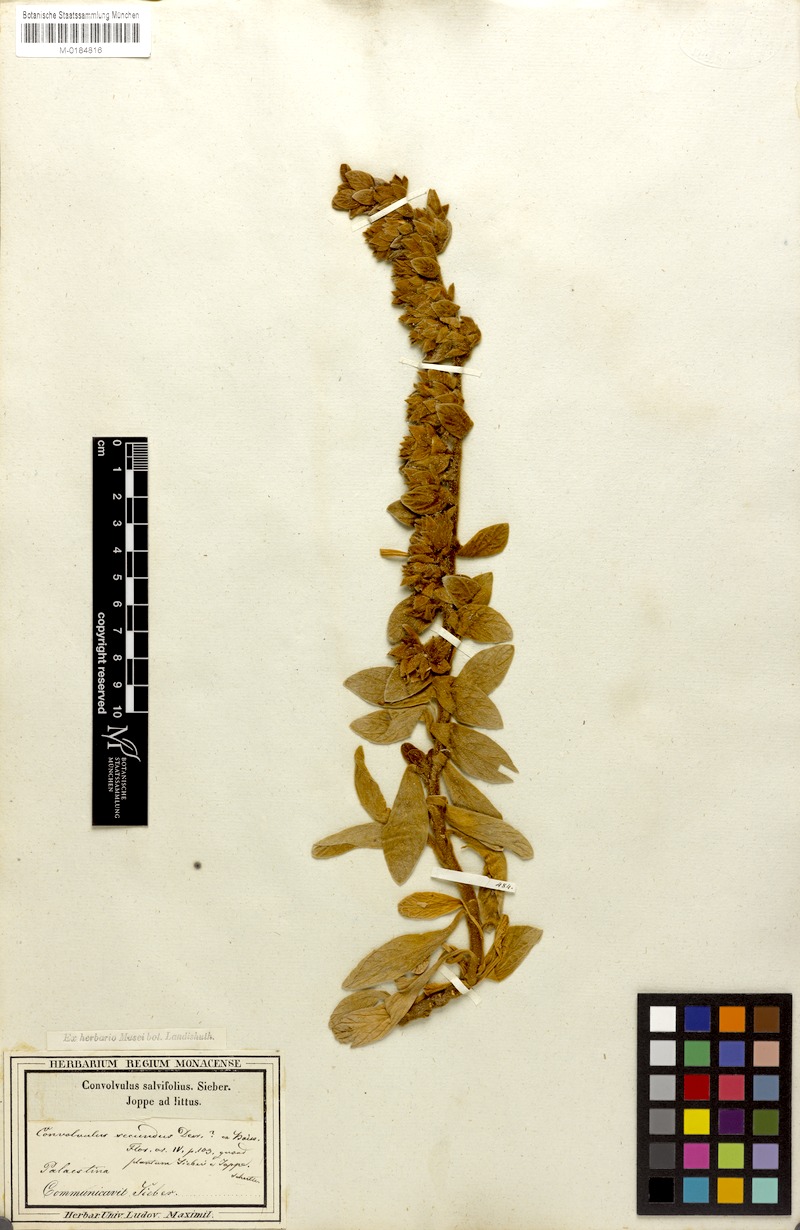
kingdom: Plantae
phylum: Tracheophyta
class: Magnoliopsida
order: Solanales
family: Convolvulaceae
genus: Jacquemontia
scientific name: Jacquemontia unilateralis
